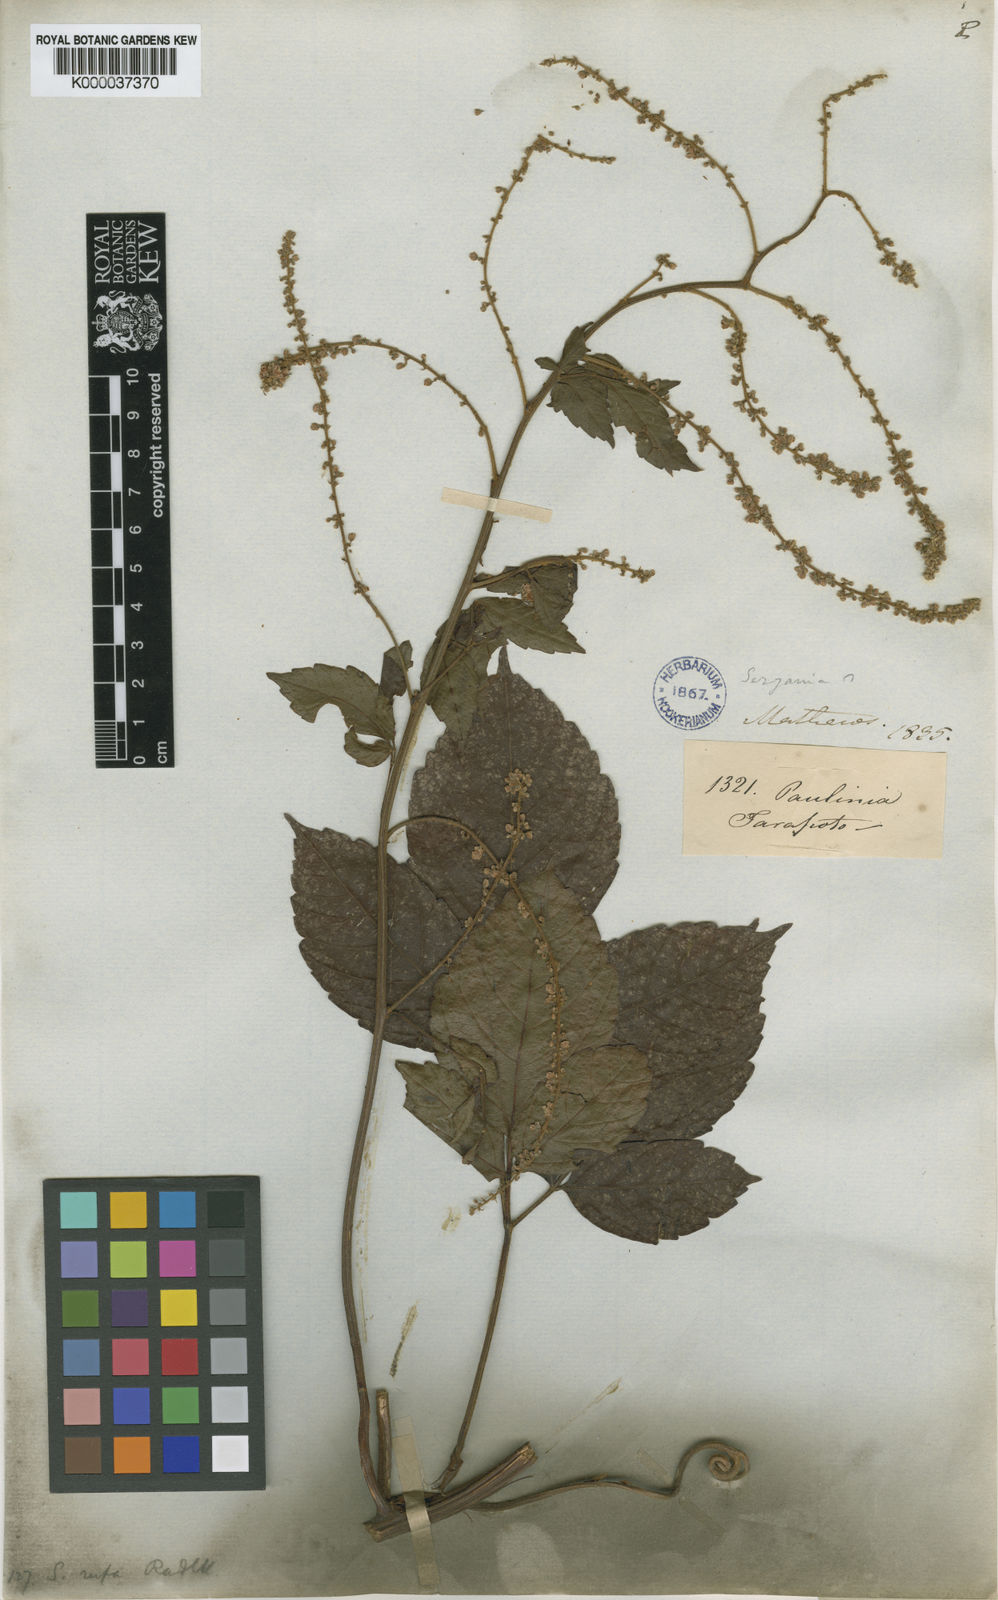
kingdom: Plantae
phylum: Tracheophyta
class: Magnoliopsida
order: Sapindales
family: Sapindaceae
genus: Serjania
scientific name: Serjania rufa
